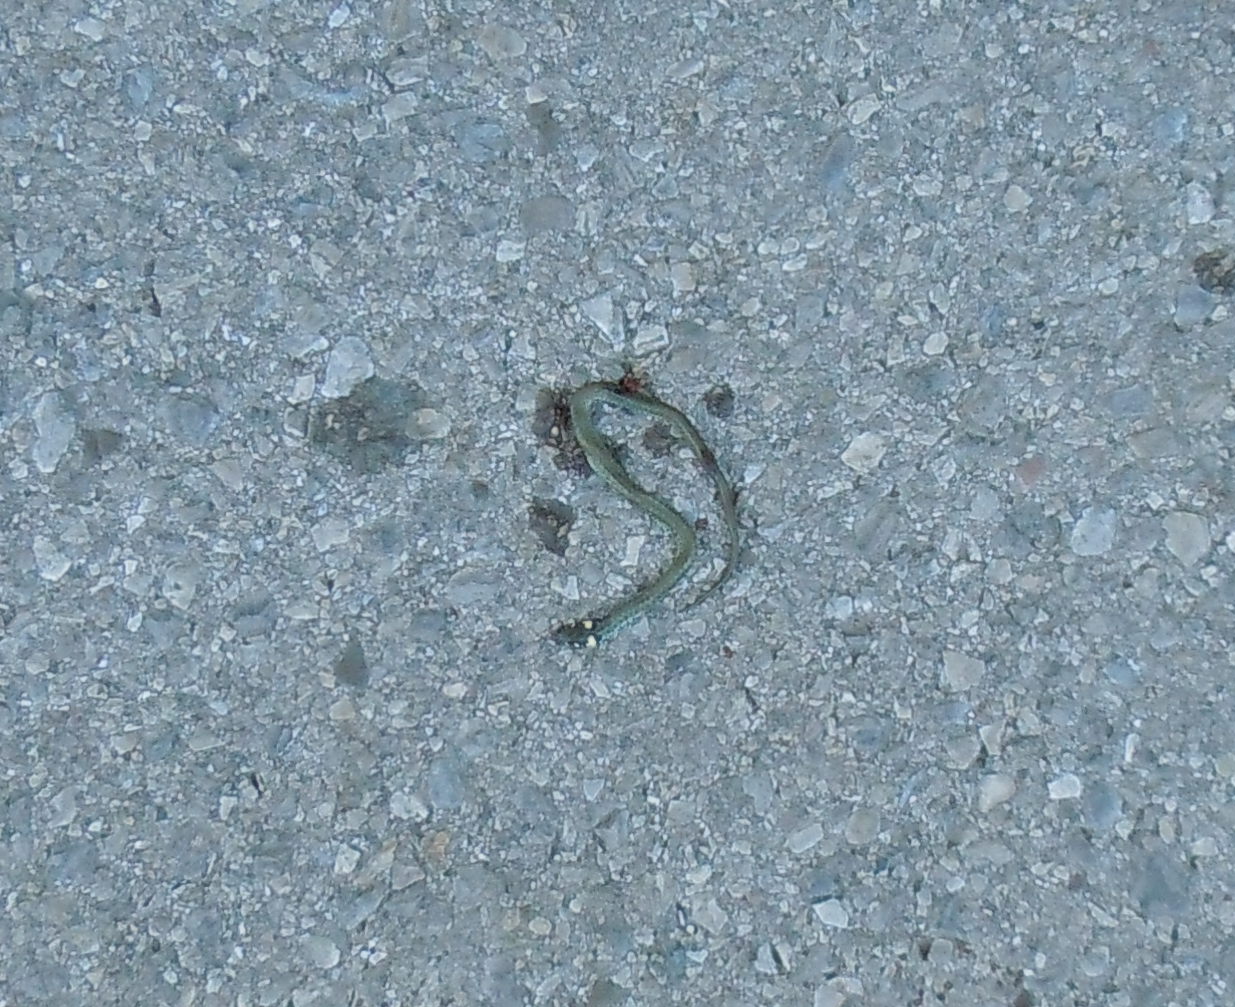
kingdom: Animalia
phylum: Chordata
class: Squamata
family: Colubridae
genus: Natrix
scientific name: Natrix natrix
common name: Grass snake
